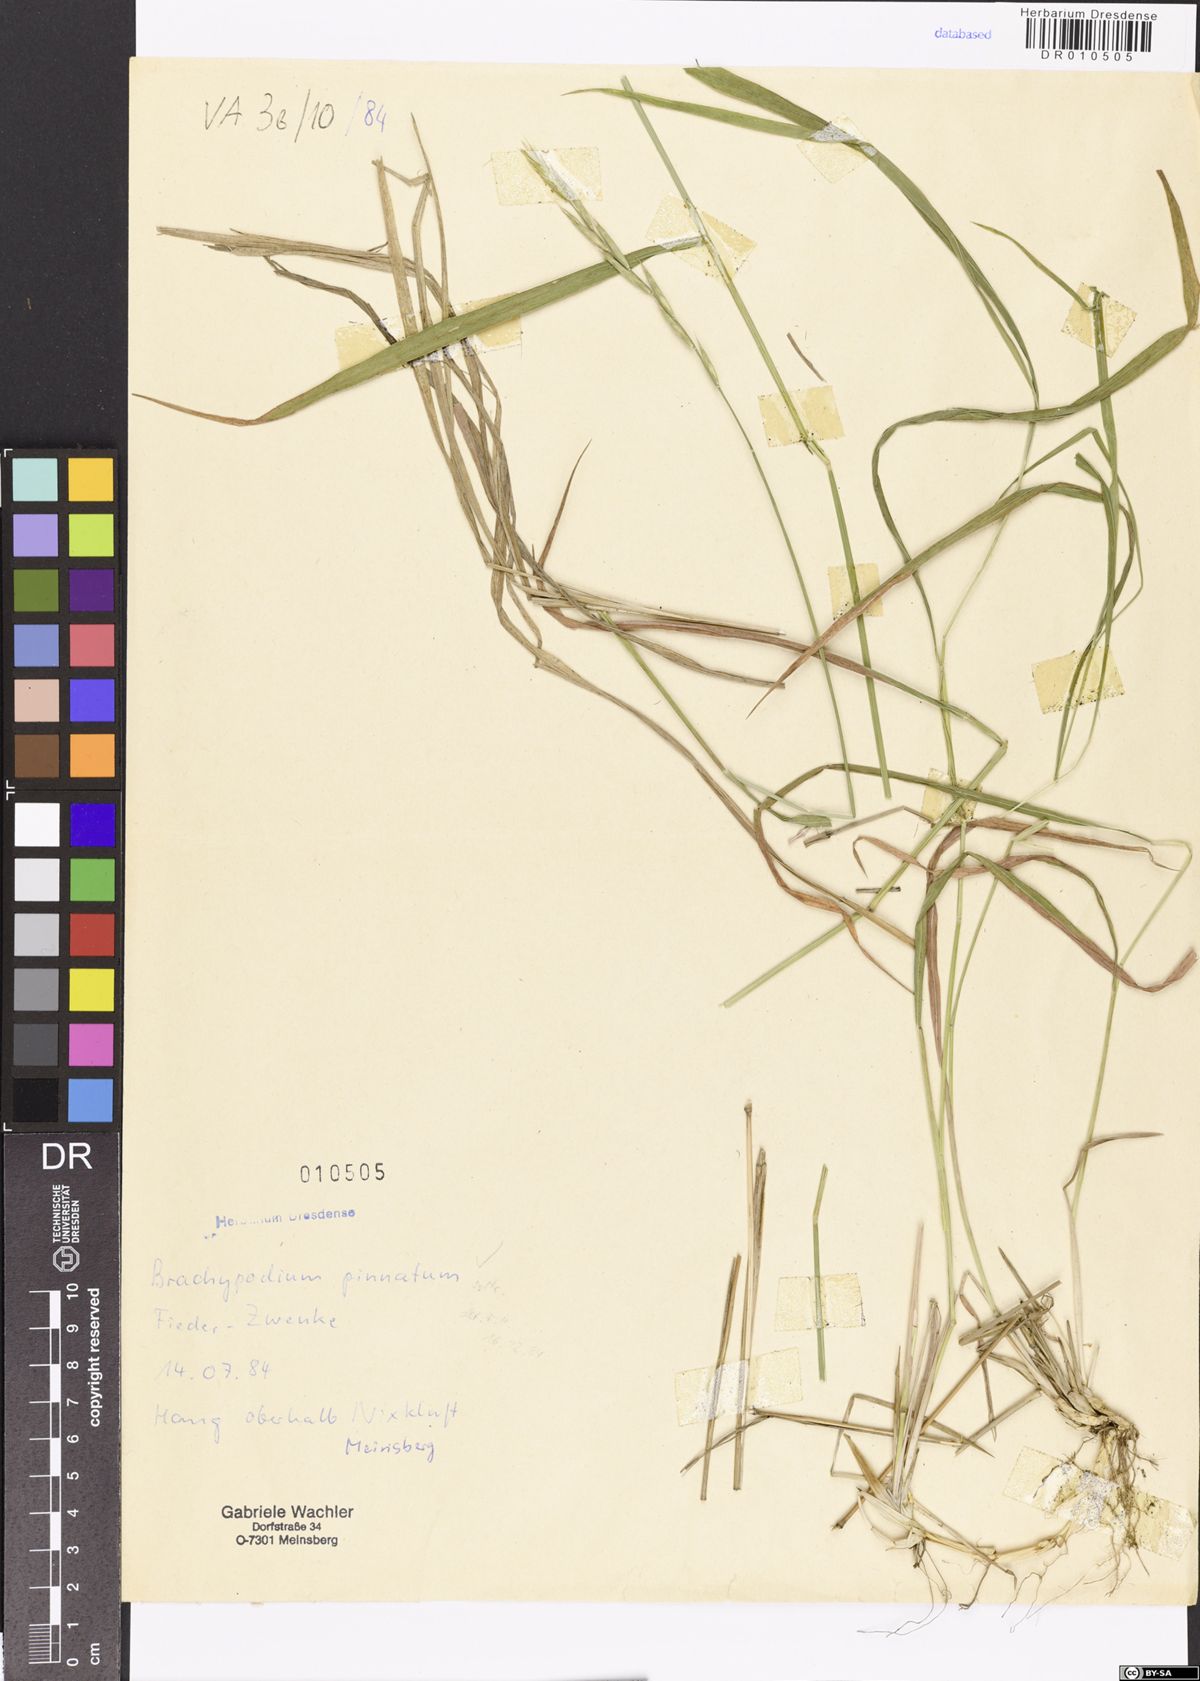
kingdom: Plantae
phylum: Tracheophyta
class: Liliopsida
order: Poales
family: Poaceae
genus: Brachypodium
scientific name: Brachypodium pinnatum
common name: Tor grass
